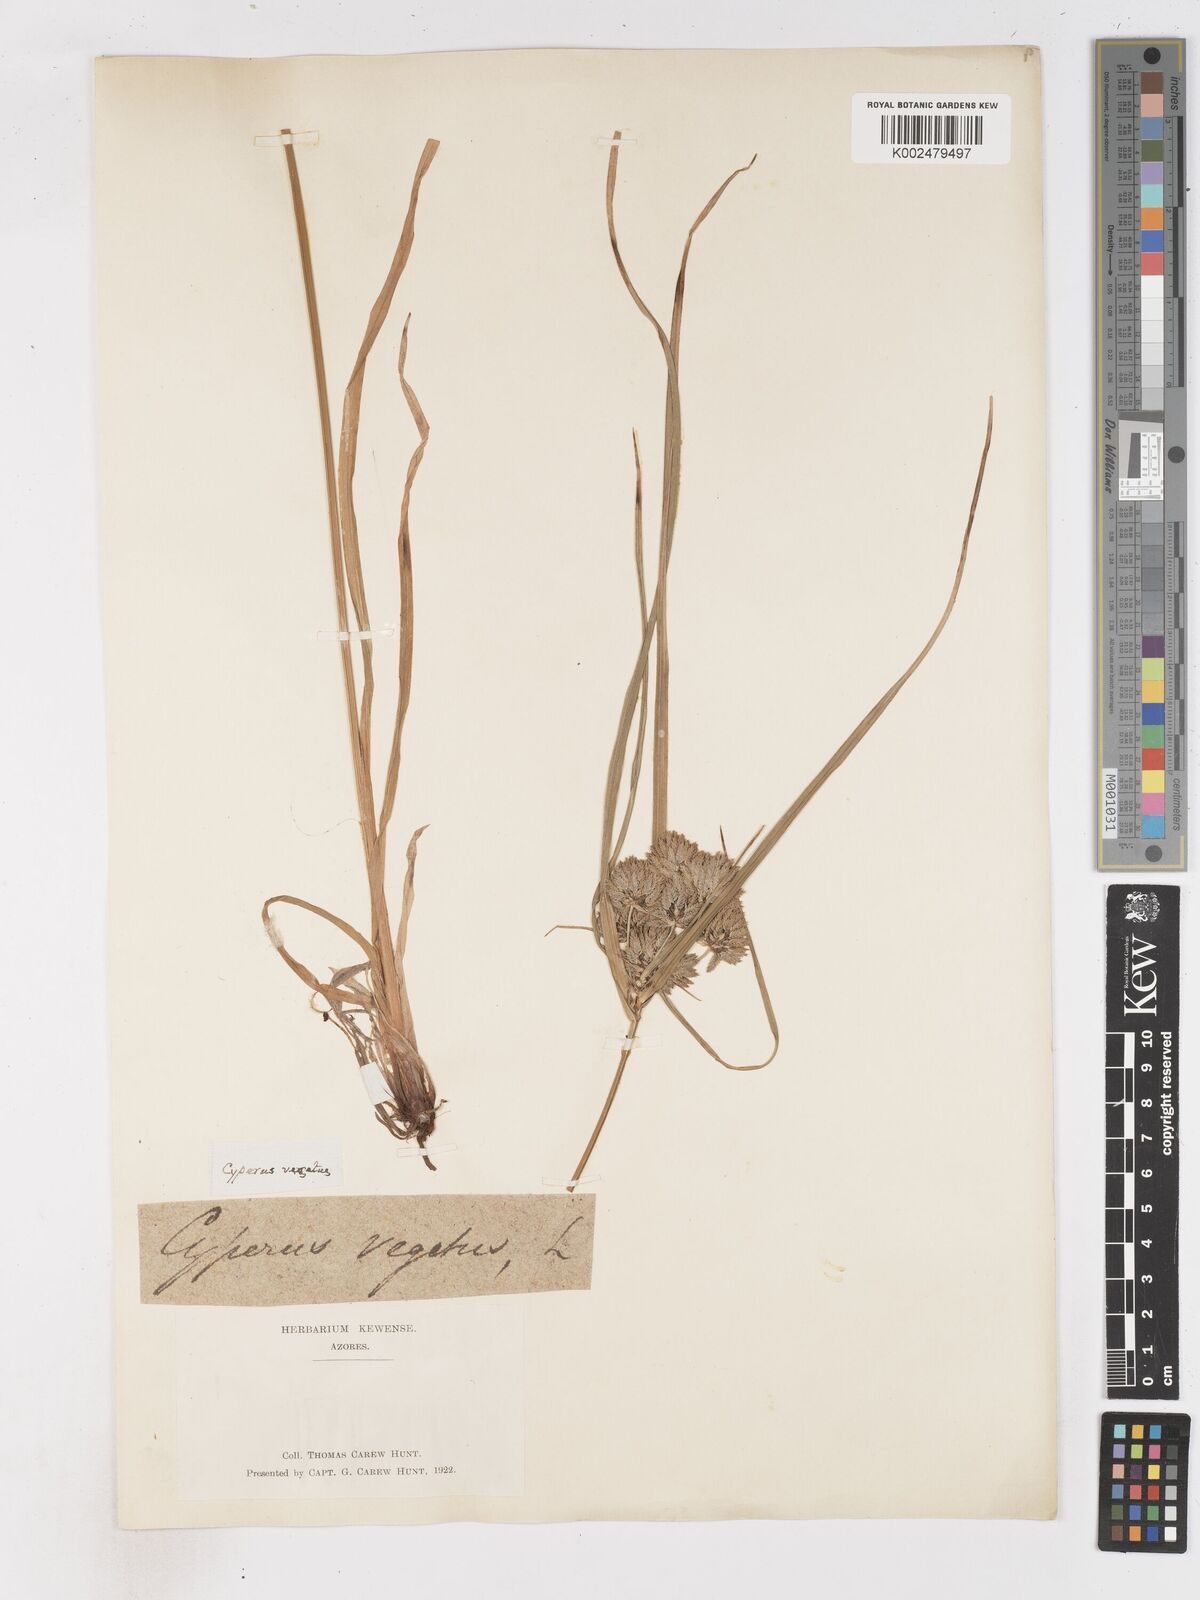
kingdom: Plantae
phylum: Tracheophyta
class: Liliopsida
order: Poales
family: Cyperaceae
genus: Cyperus
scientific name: Cyperus eragrostis
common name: Tall flatsedge
